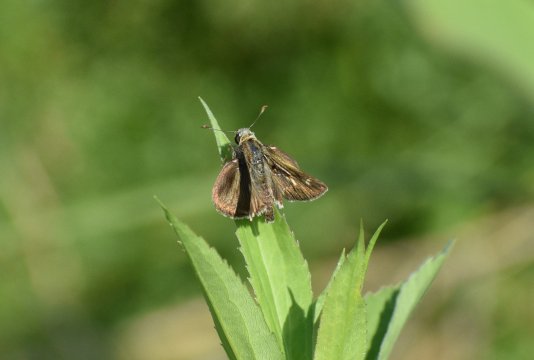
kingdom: Animalia
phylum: Arthropoda
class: Insecta
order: Lepidoptera
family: Hesperiidae
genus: Polites
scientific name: Polites egeremet
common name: Northern Broken-Dash
